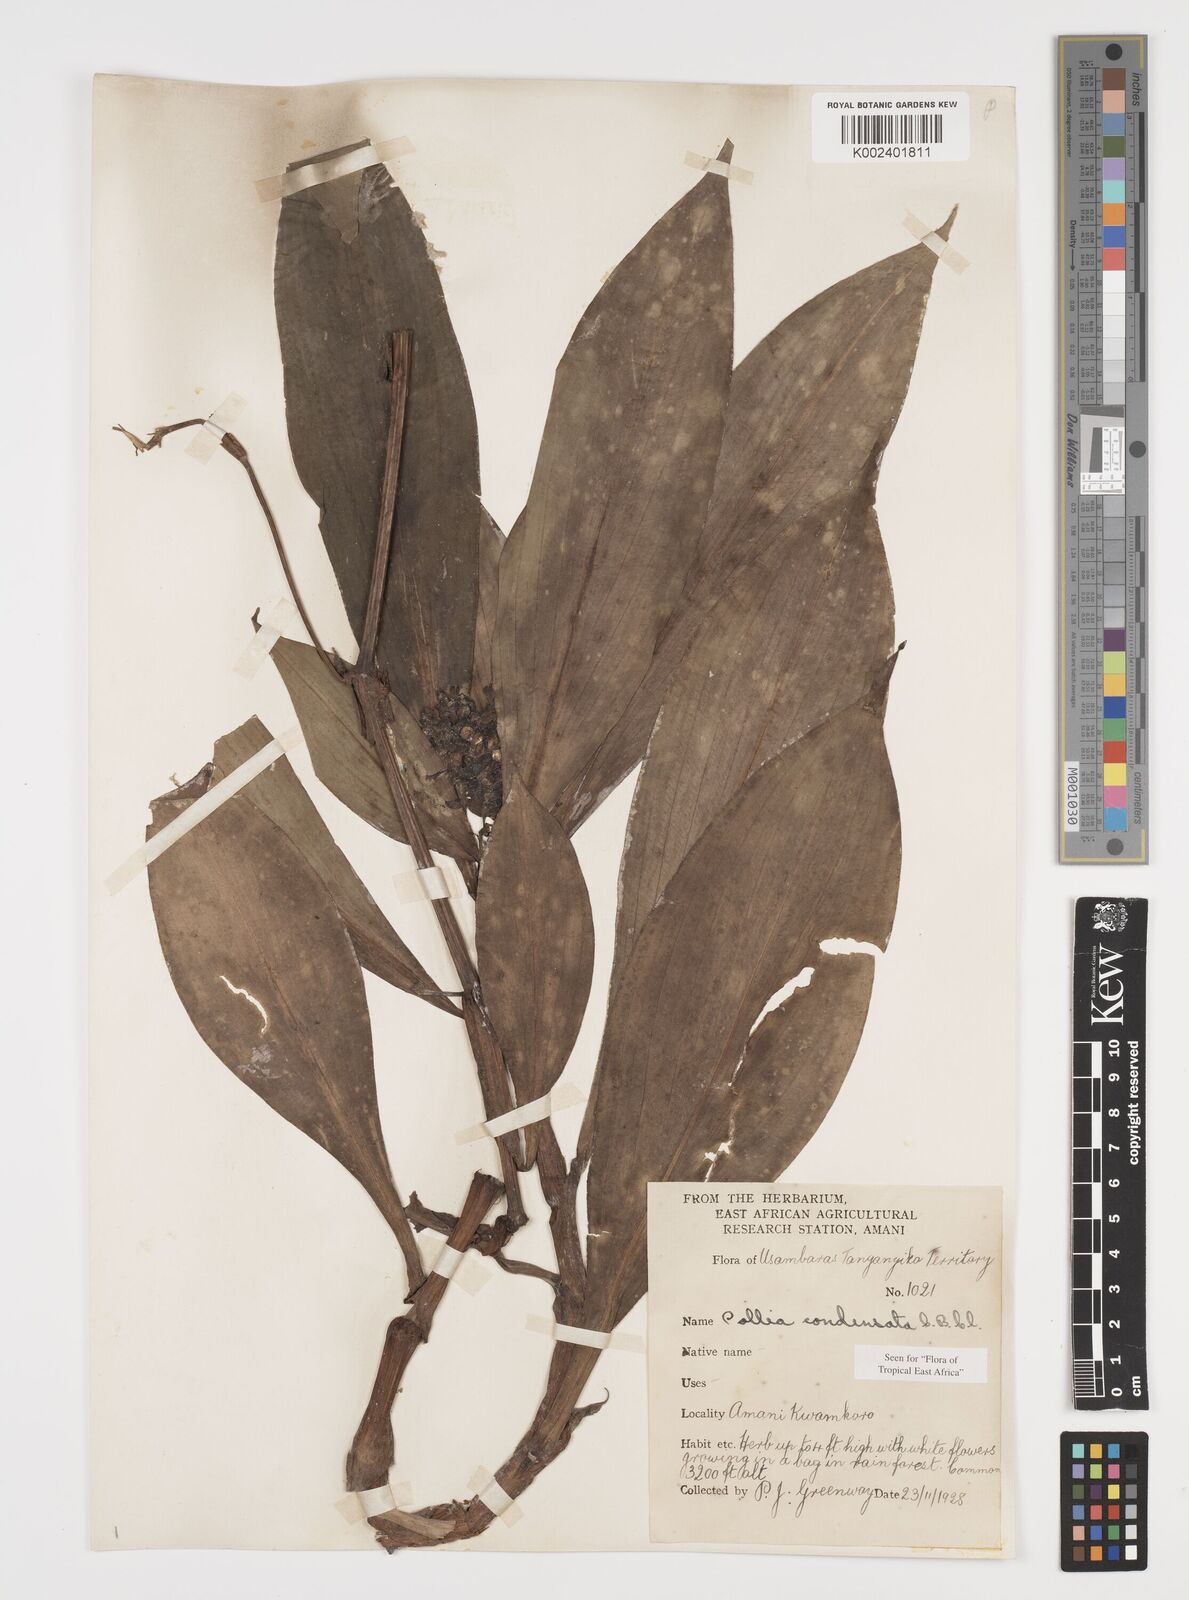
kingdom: Plantae
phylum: Tracheophyta
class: Liliopsida
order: Commelinales
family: Commelinaceae
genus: Pollia
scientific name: Pollia condensata
